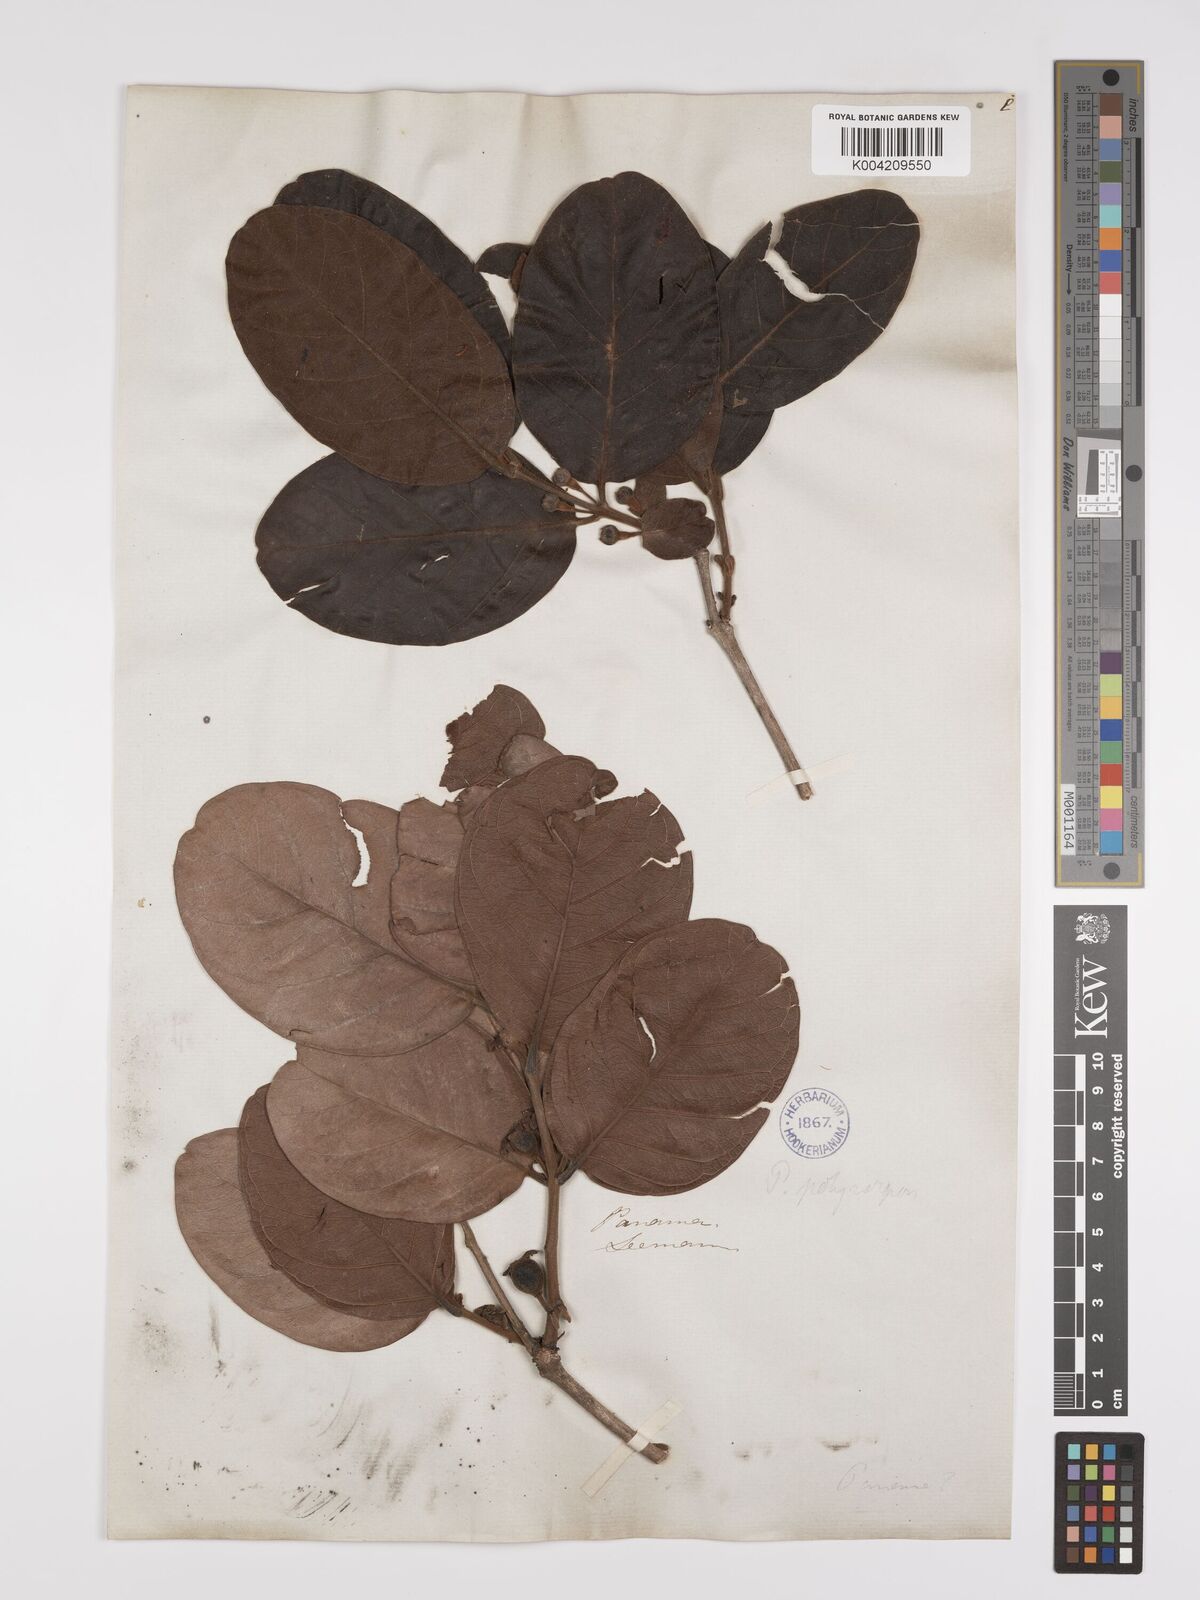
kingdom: Plantae
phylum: Tracheophyta
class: Magnoliopsida
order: Myrtales
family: Myrtaceae
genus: Psidium
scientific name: Psidium guineense
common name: Brazilian guava
